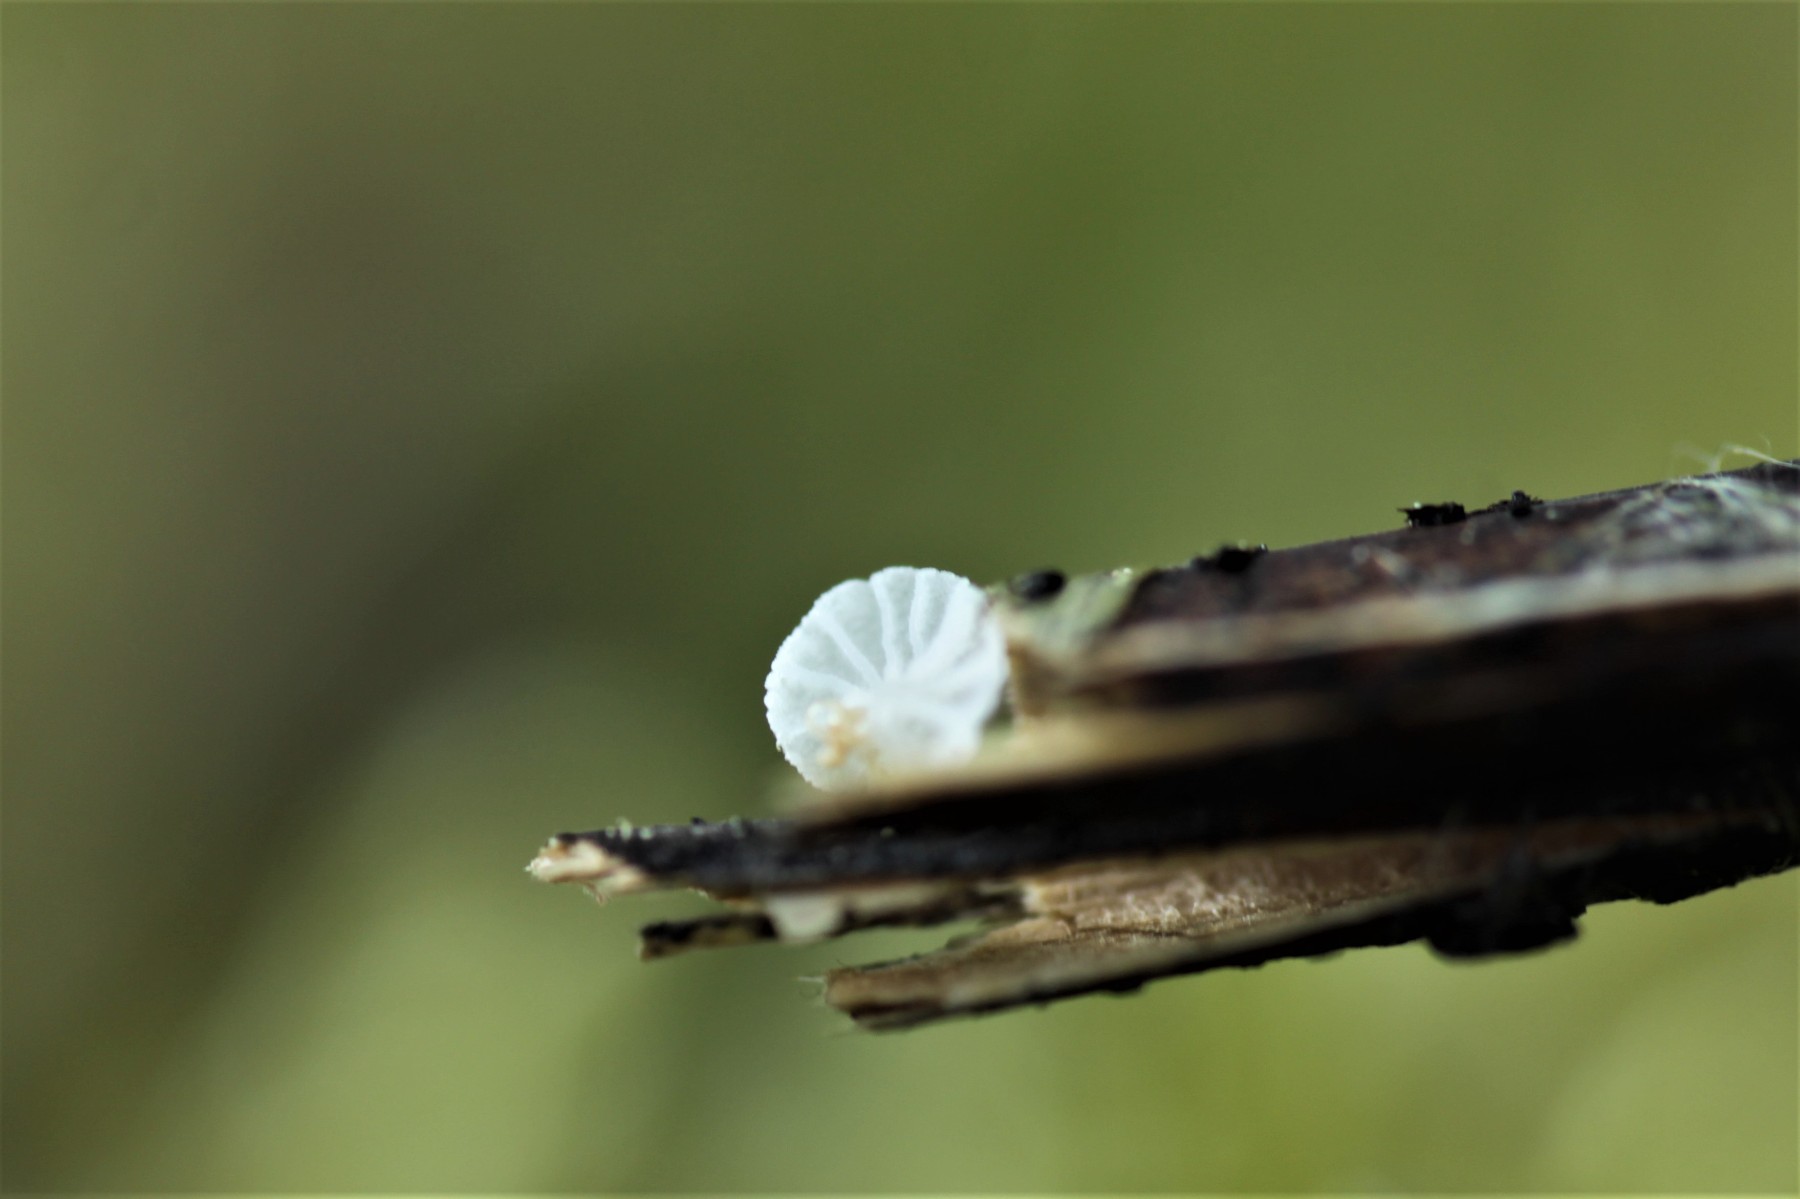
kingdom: Fungi
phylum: Basidiomycota
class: Agaricomycetes
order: Agaricales
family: Mycenaceae
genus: Resinomycena
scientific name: Resinomycena saccharifera
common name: sukkerhat
